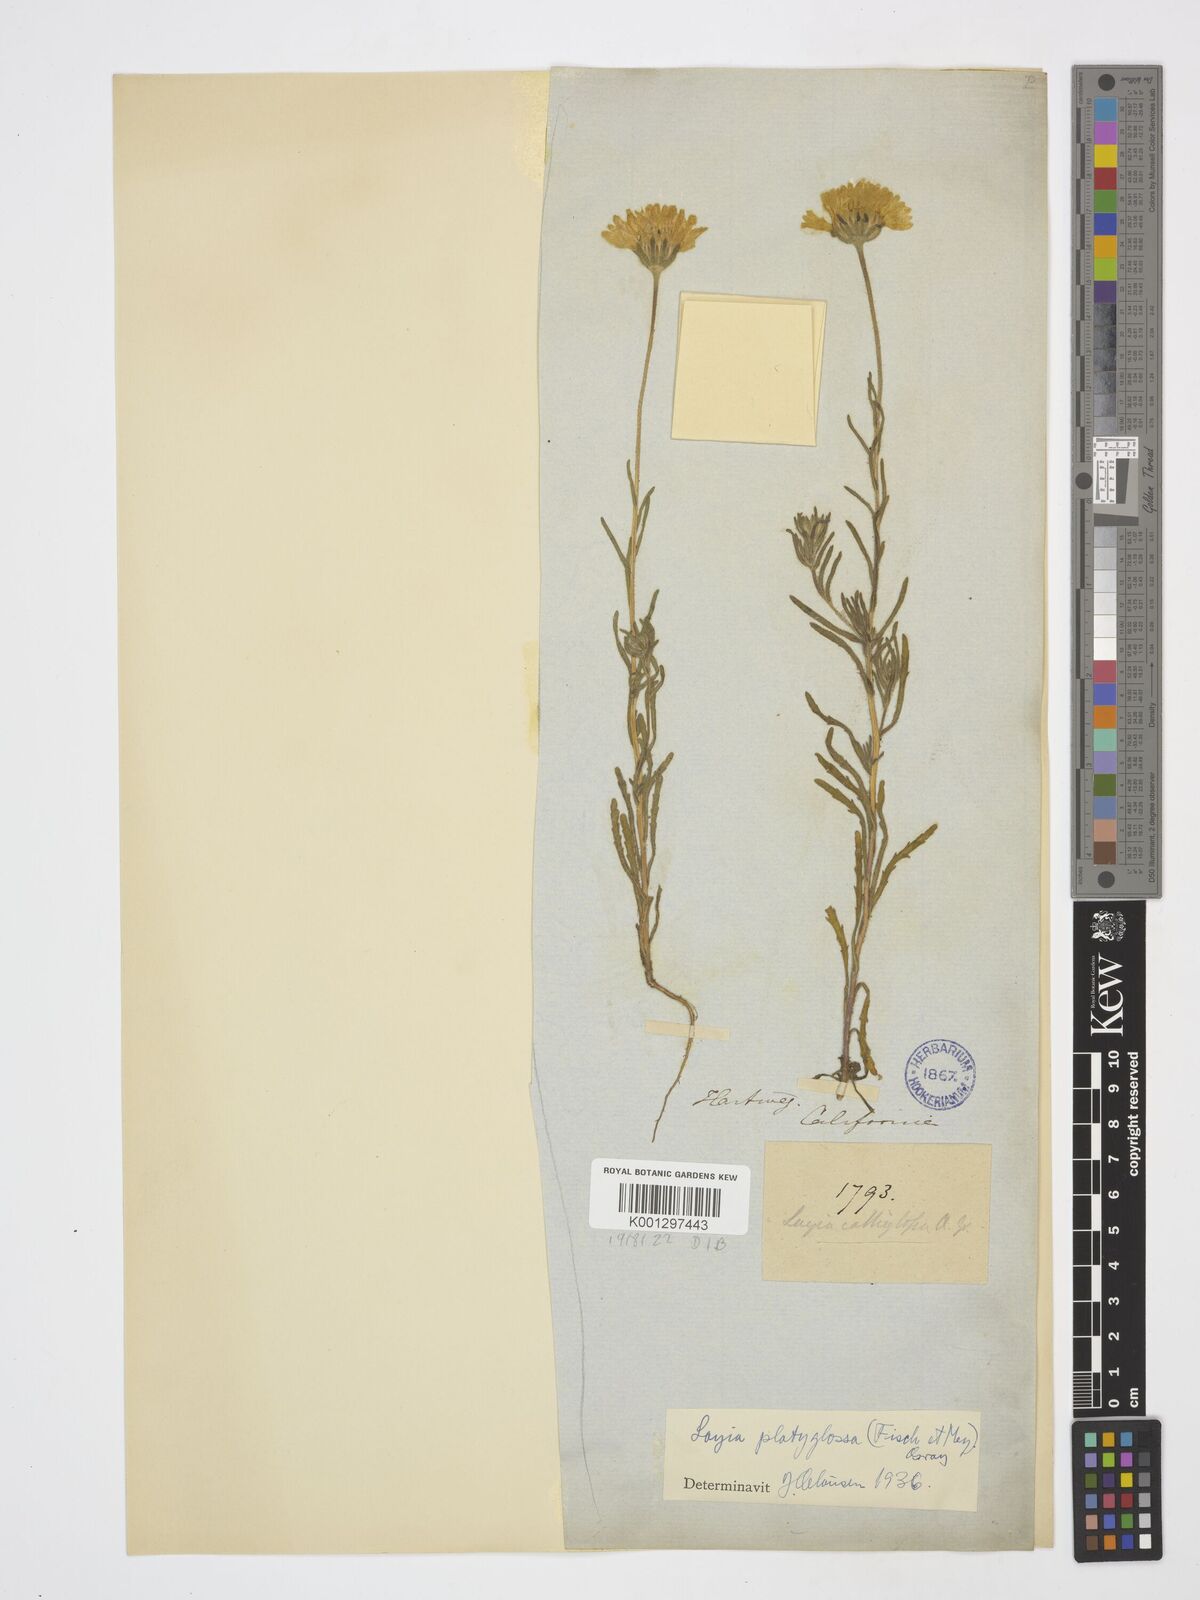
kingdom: Plantae
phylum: Tracheophyta
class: Magnoliopsida
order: Asterales
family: Asteraceae
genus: Layia
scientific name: Layia platyglossa
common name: Tidy-tips
